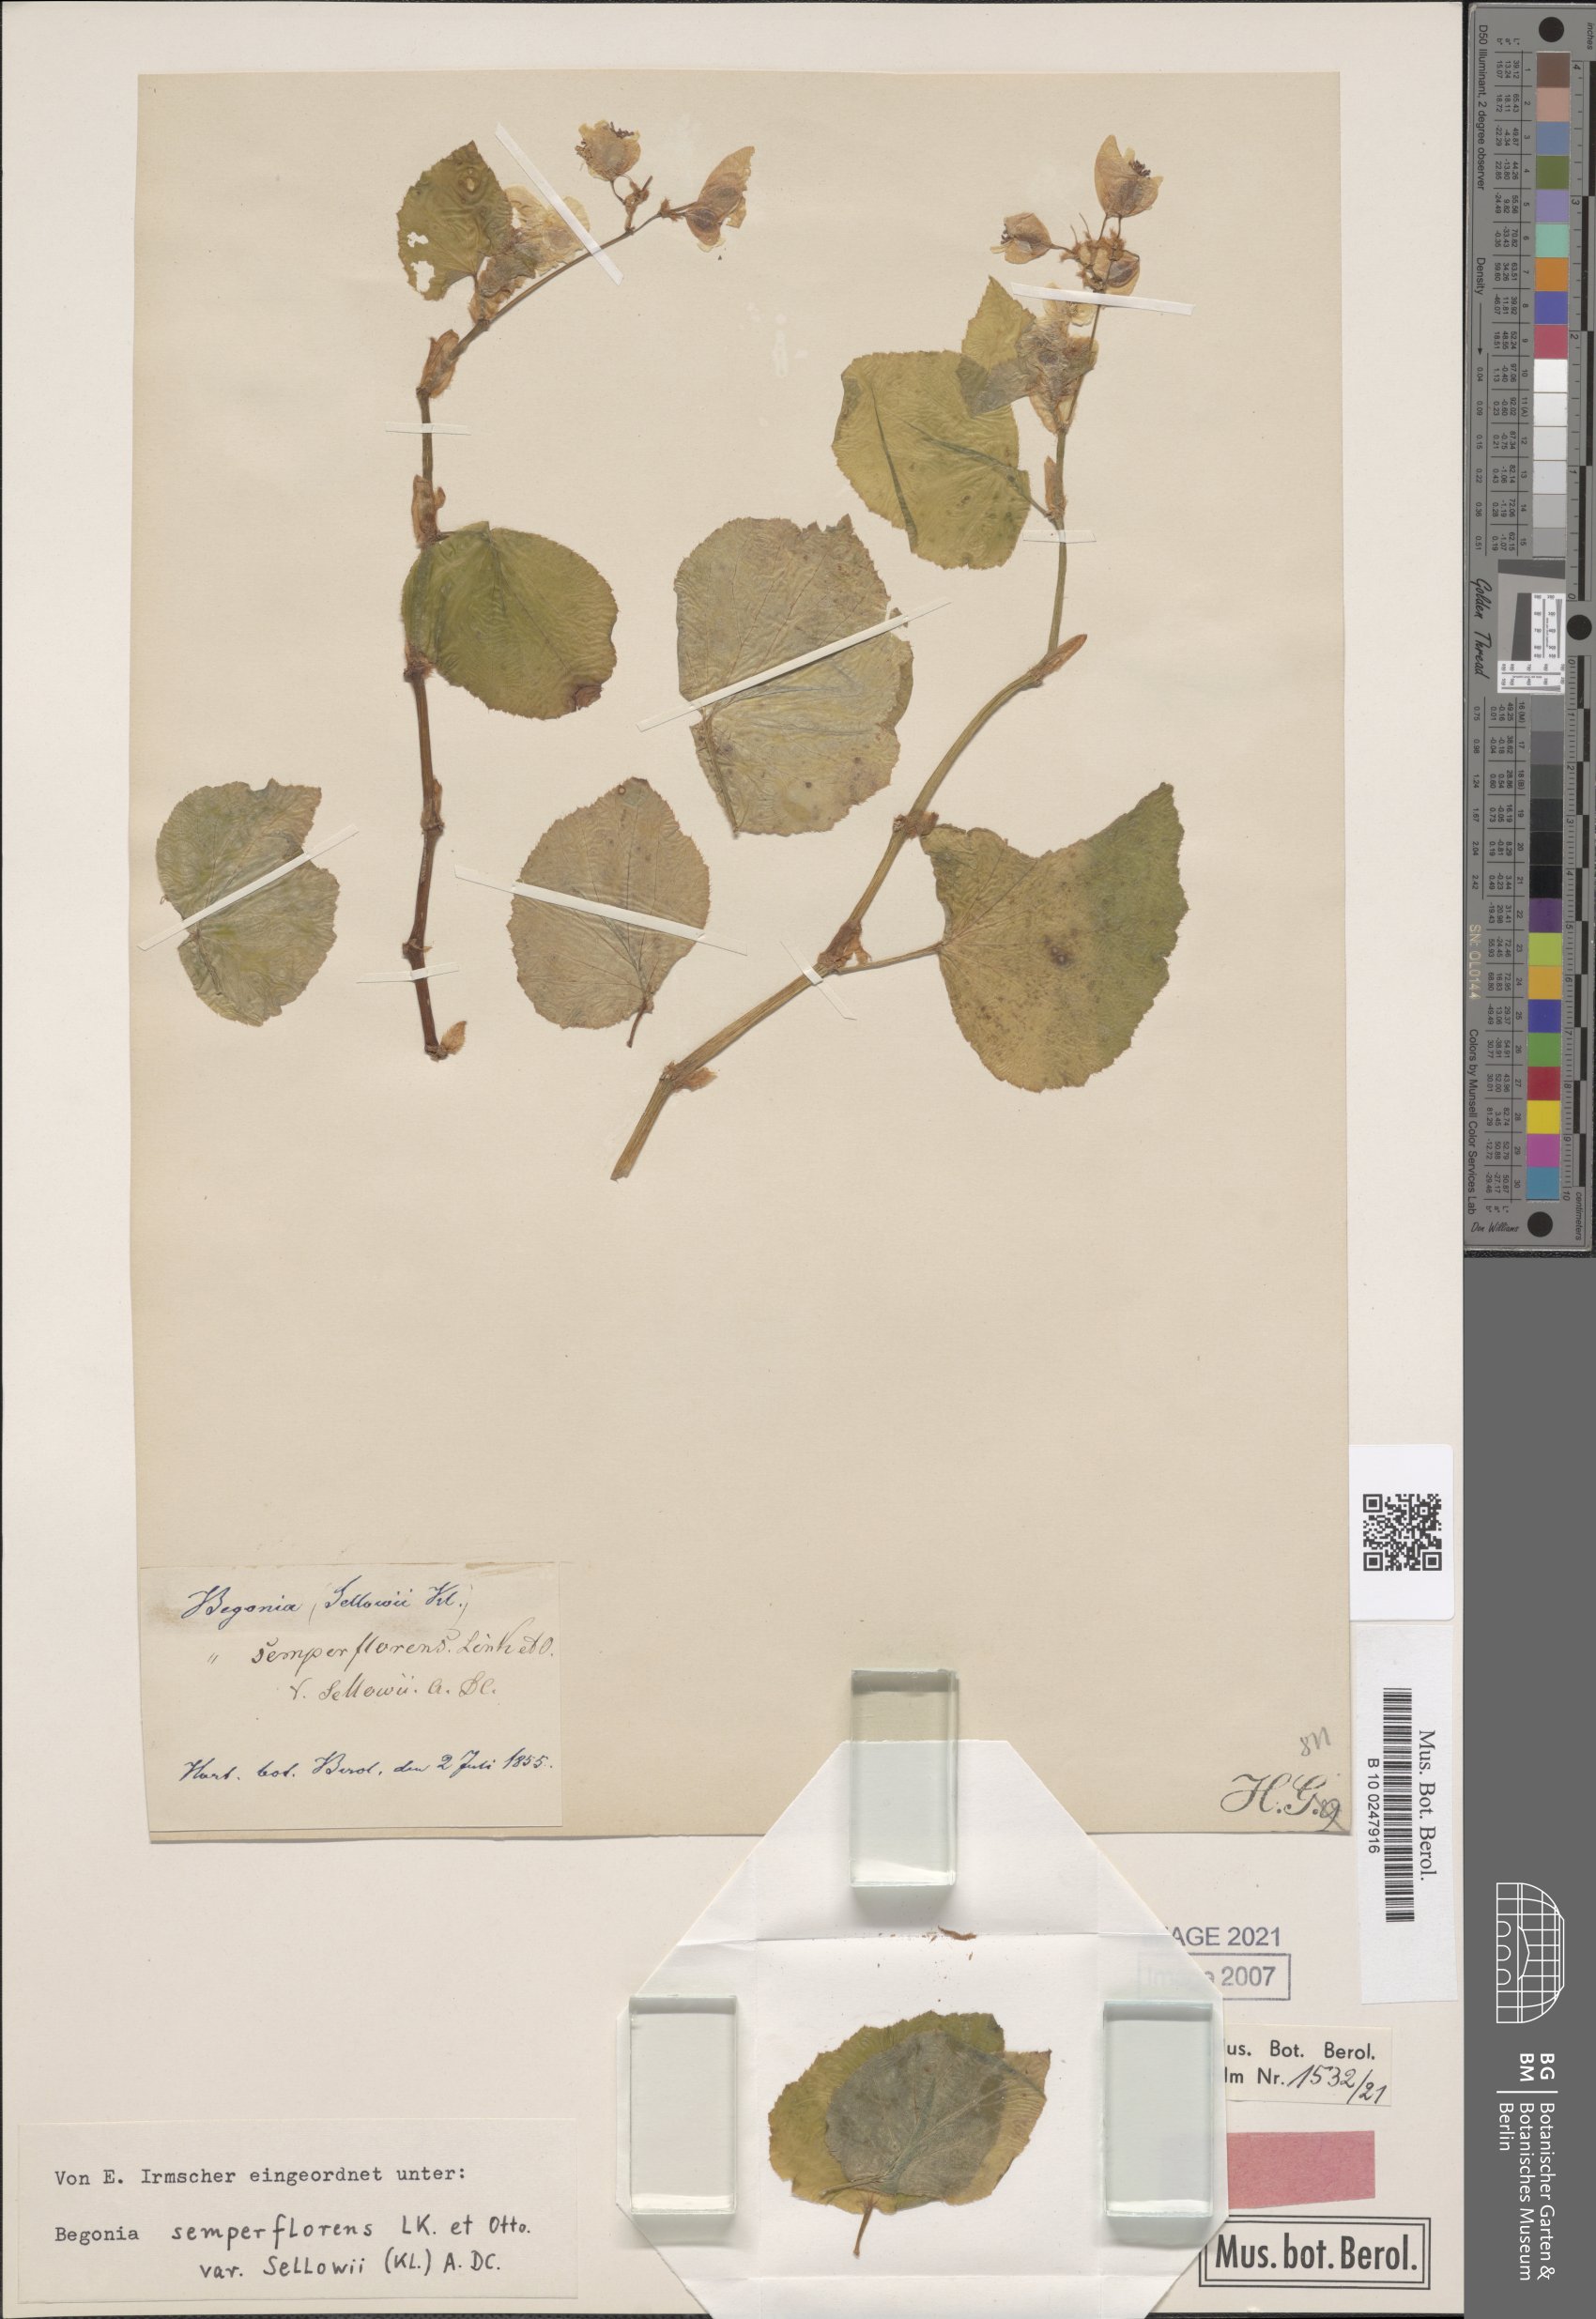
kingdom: Plantae
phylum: Tracheophyta
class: Magnoliopsida
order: Cucurbitales
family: Begoniaceae
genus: Begonia
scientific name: Begonia semperflorens
